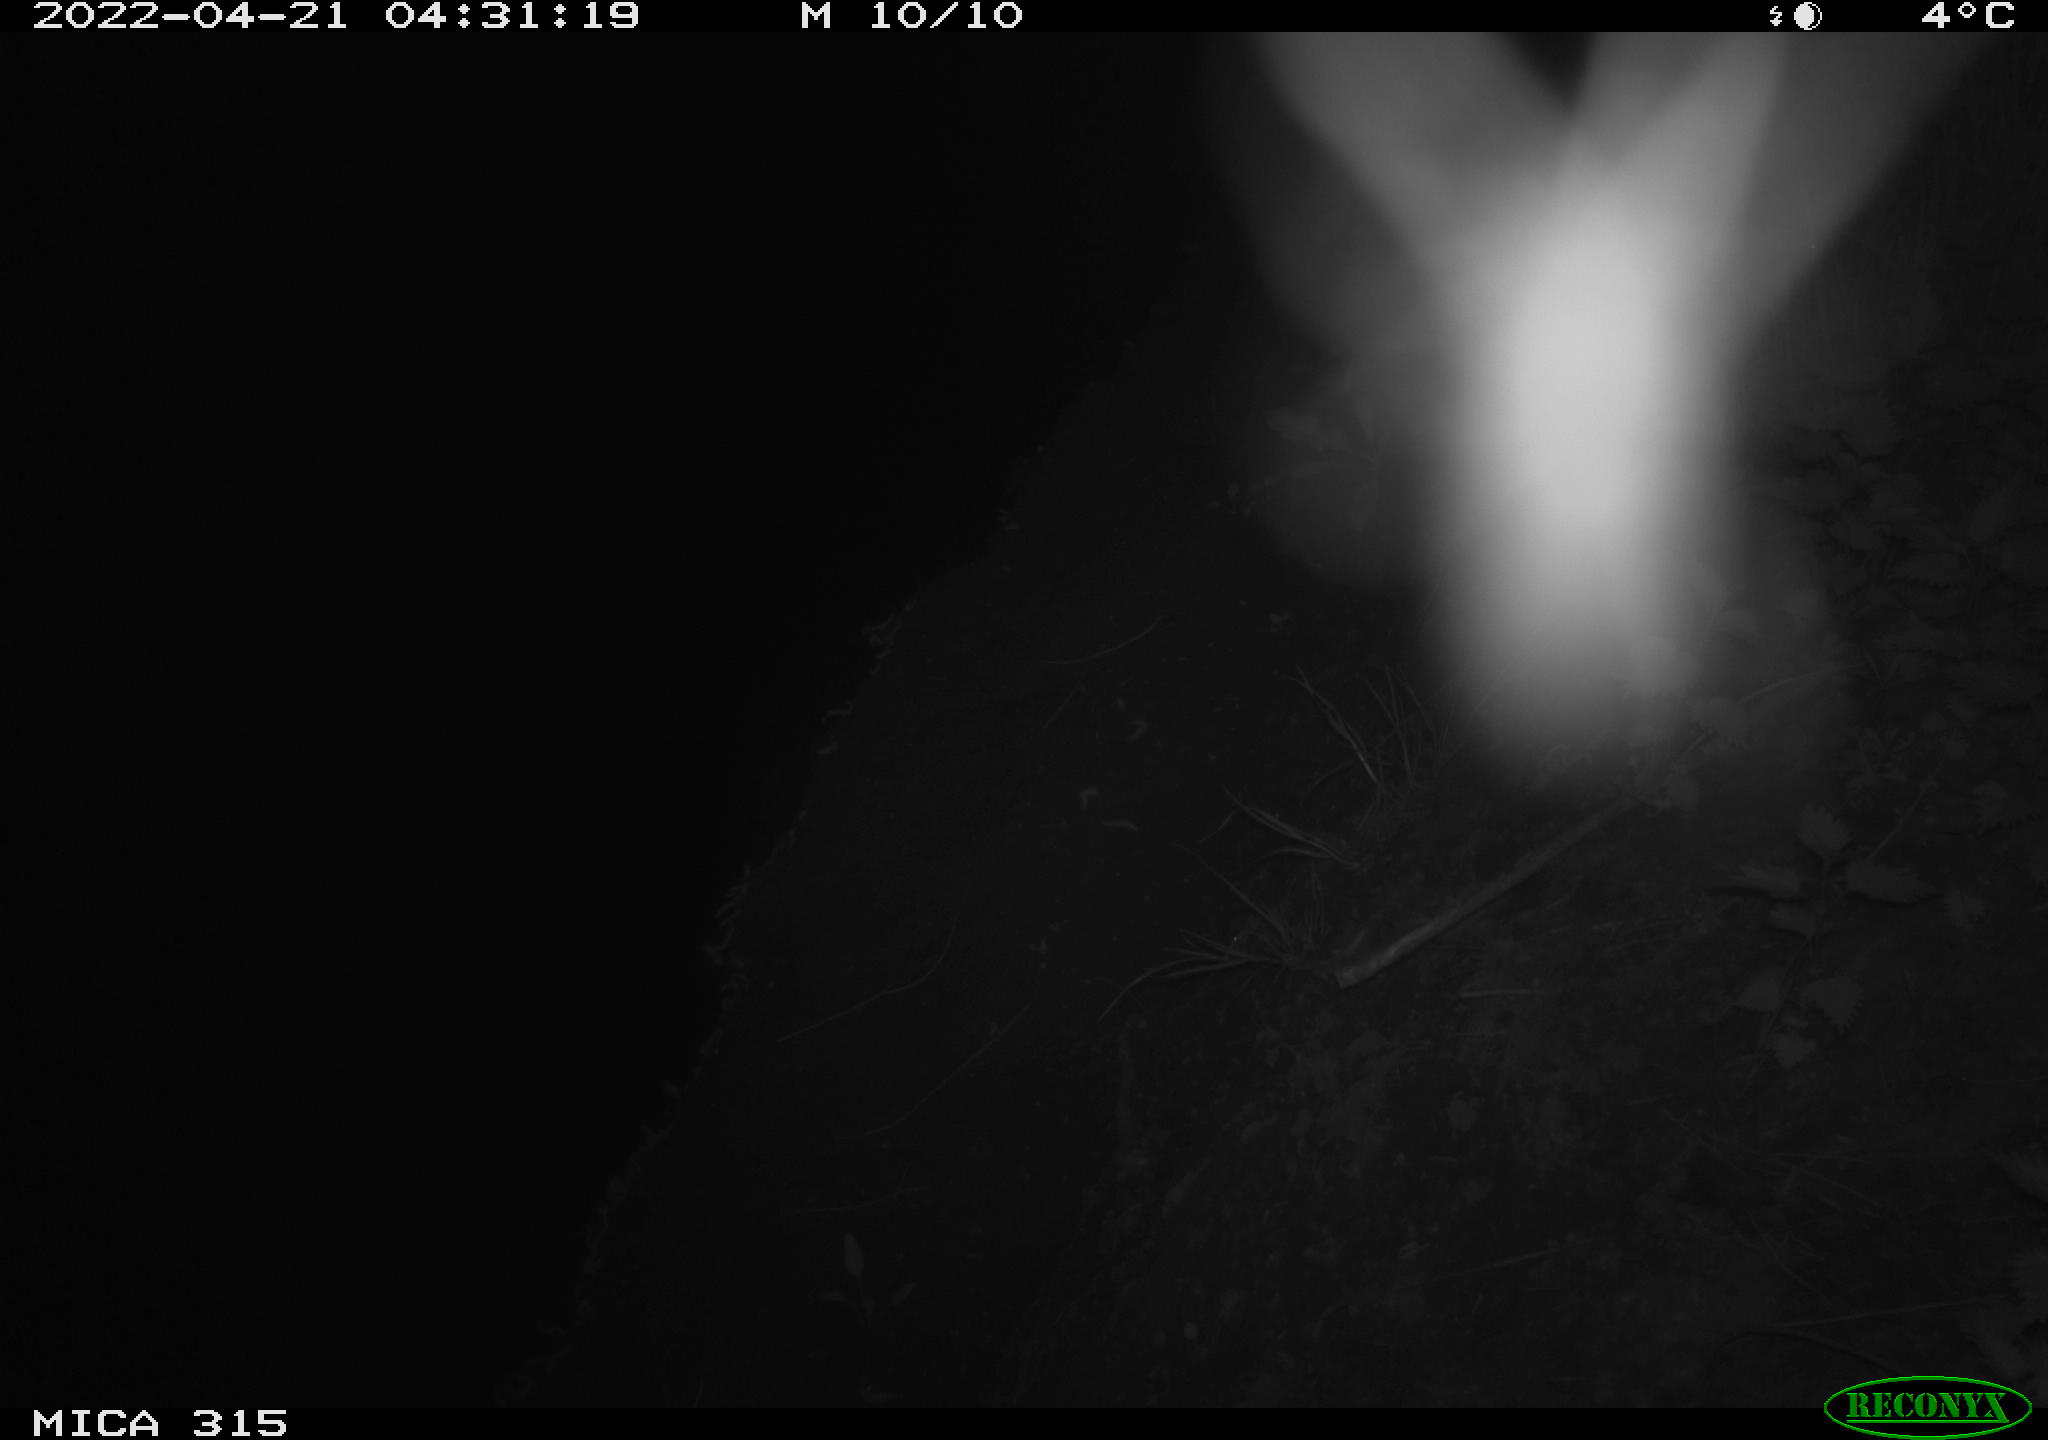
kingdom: Animalia
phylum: Chordata
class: Aves
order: Anseriformes
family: Anatidae
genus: Anas
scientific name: Anas platyrhynchos
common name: Mallard
